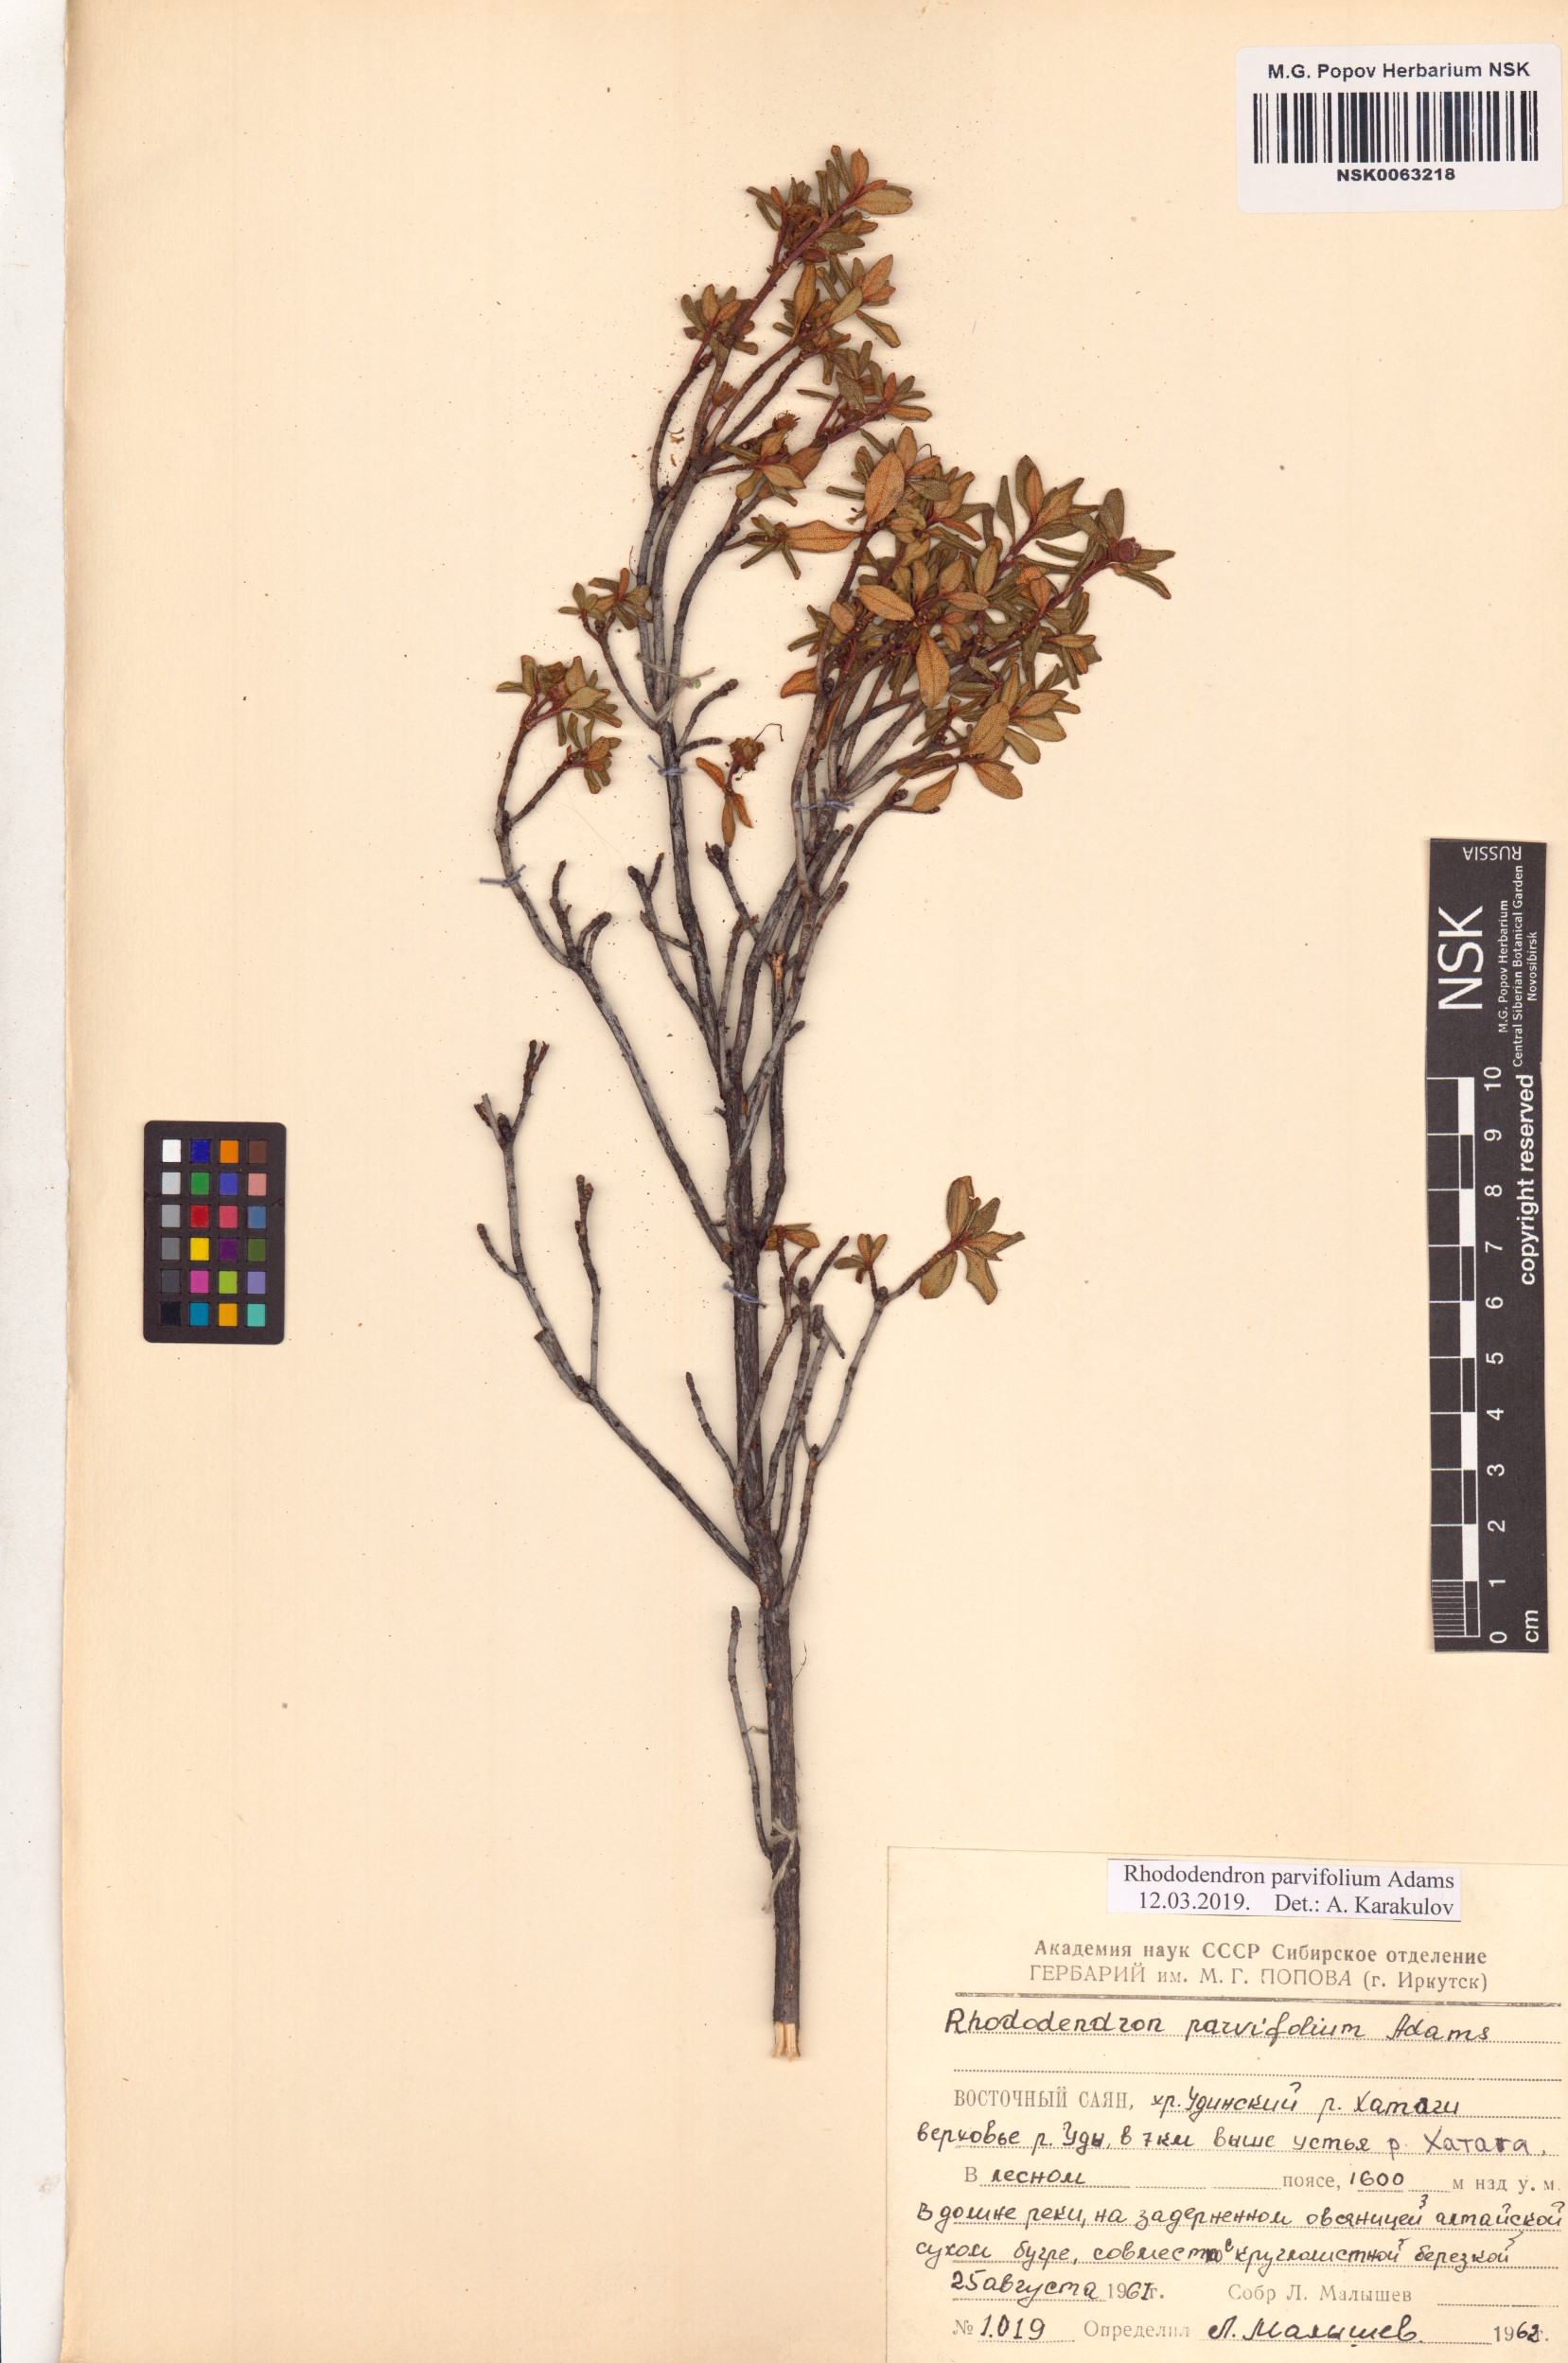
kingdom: Plantae
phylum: Tracheophyta
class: Magnoliopsida
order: Ericales
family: Ericaceae
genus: Rhododendron
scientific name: Rhododendron parvifolium
